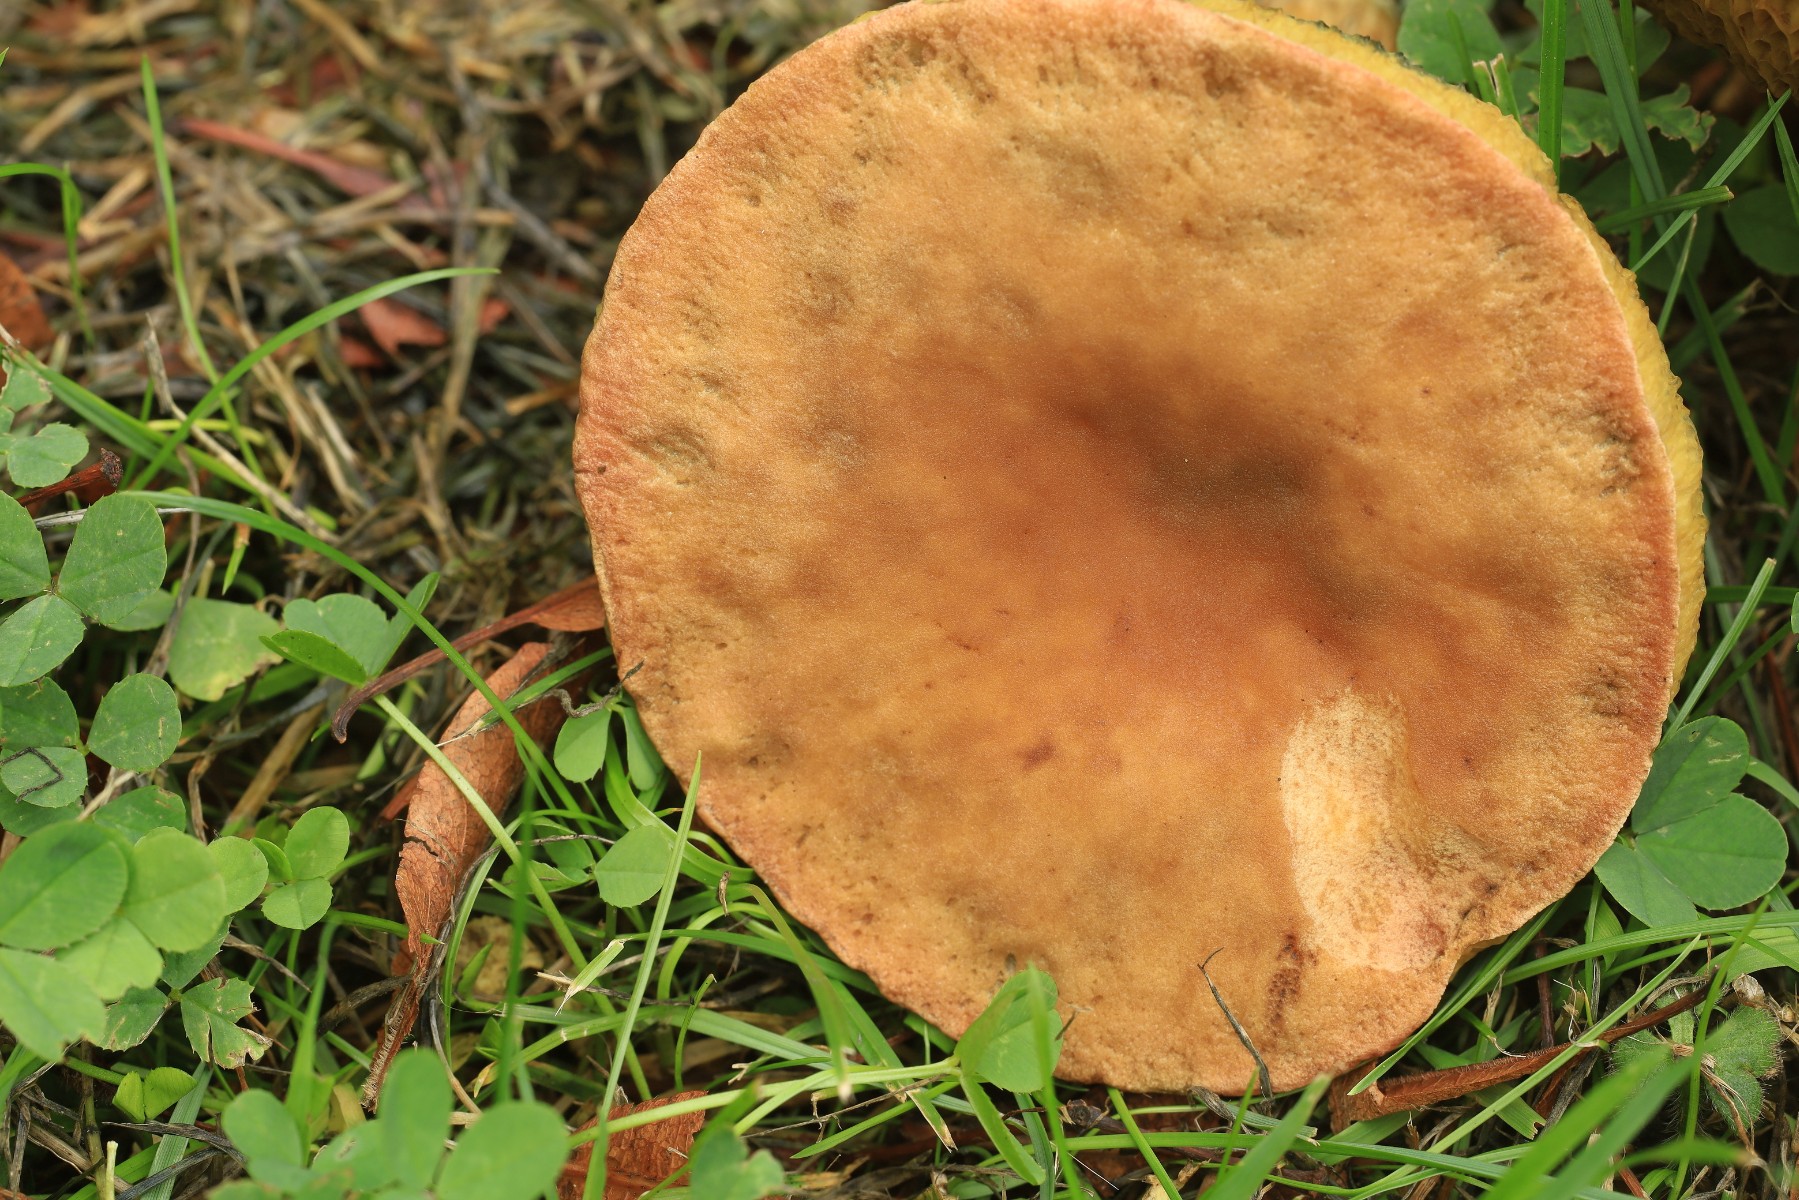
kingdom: Fungi
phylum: Basidiomycota
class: Agaricomycetes
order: Boletales
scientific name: Boletales
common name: rørhatordenen
